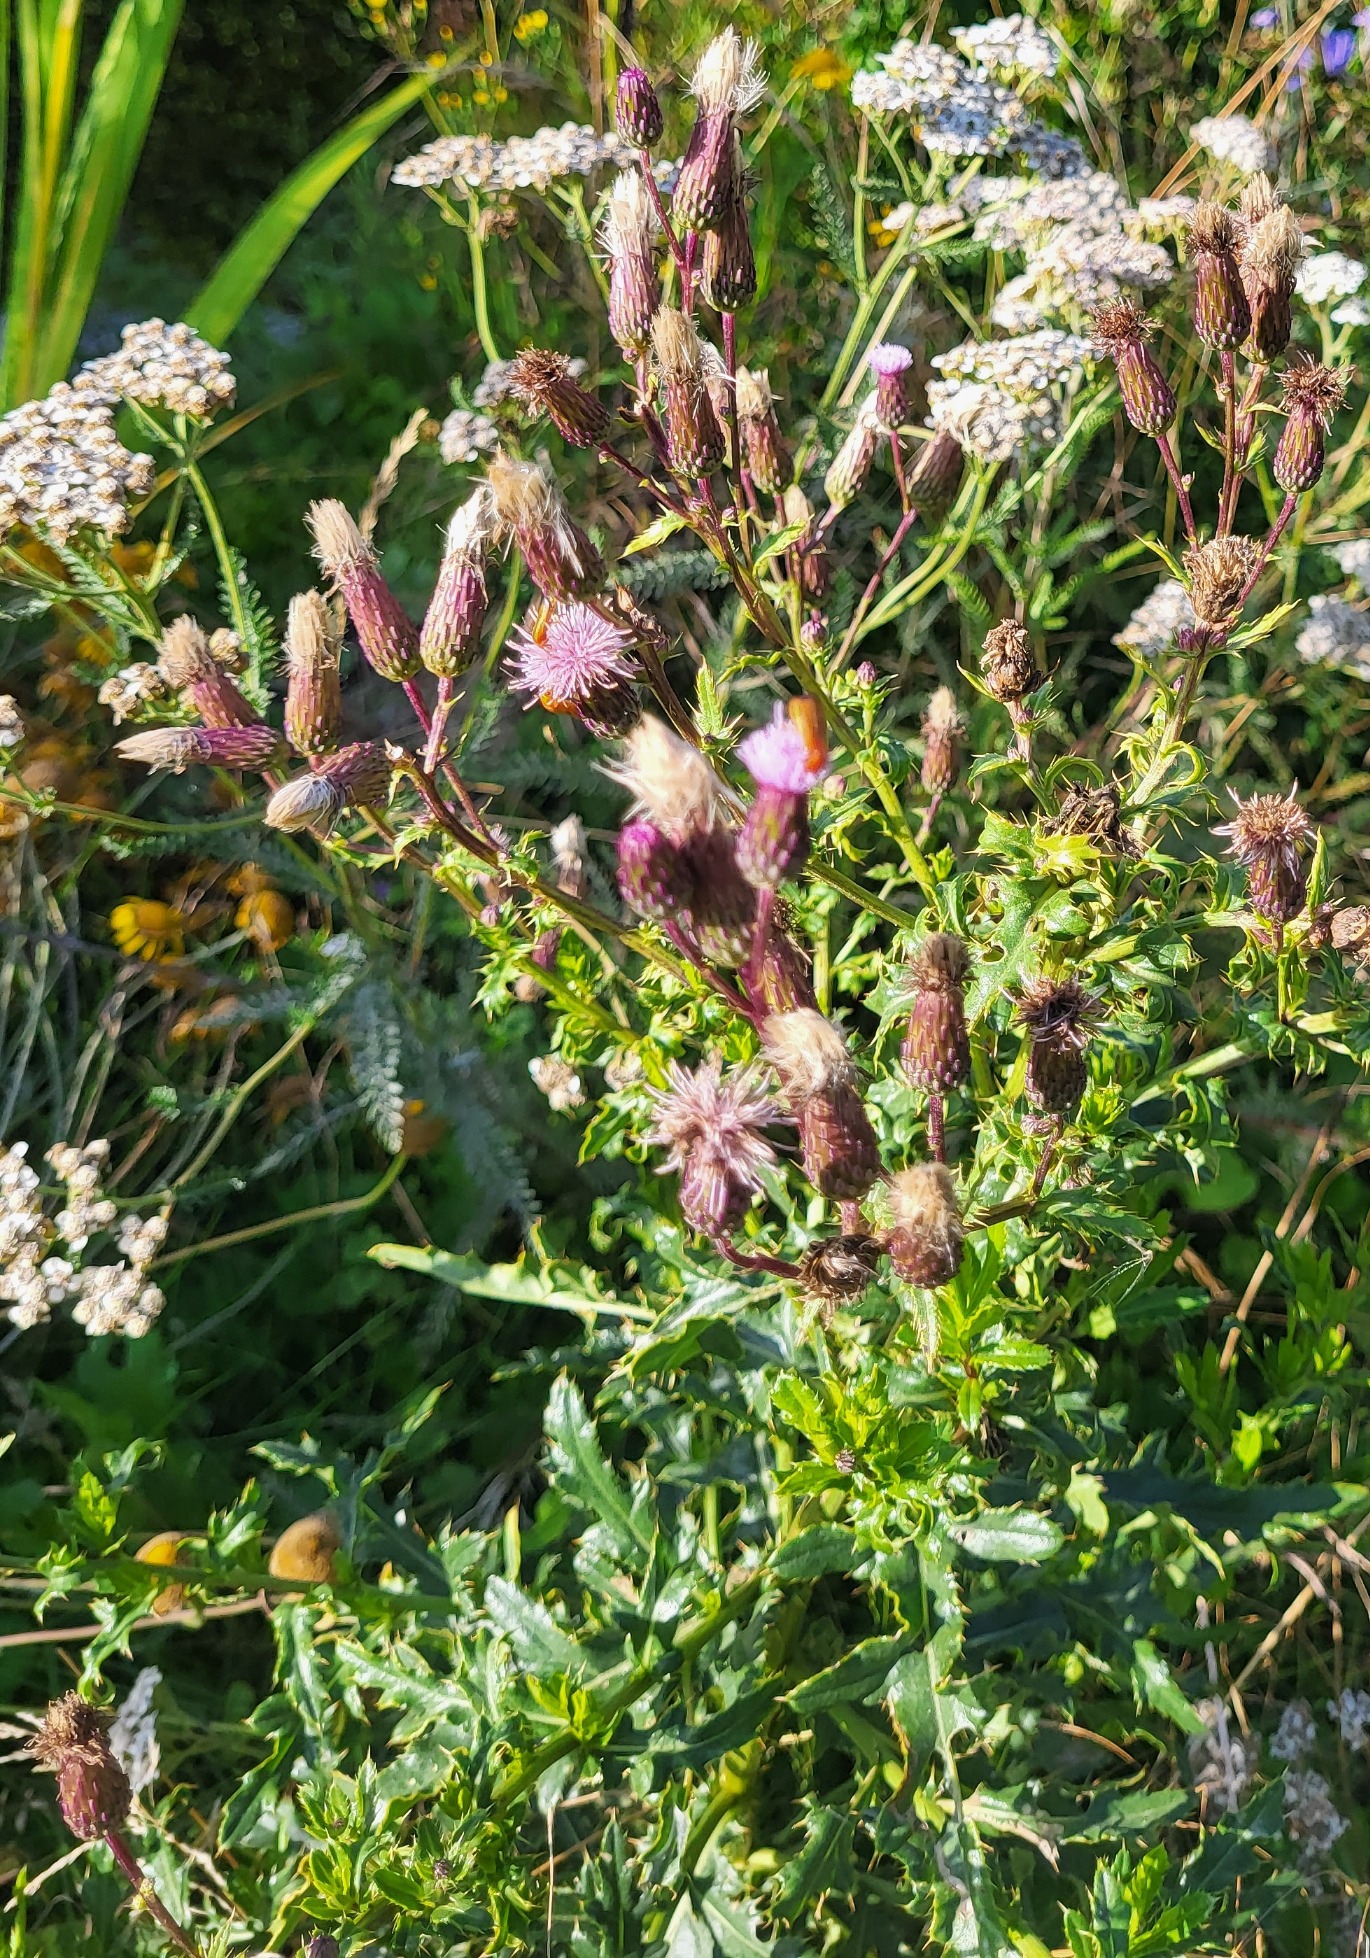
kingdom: Plantae
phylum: Tracheophyta
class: Magnoliopsida
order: Asterales
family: Asteraceae
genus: Cirsium
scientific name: Cirsium arvense
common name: Ager-tidsel
